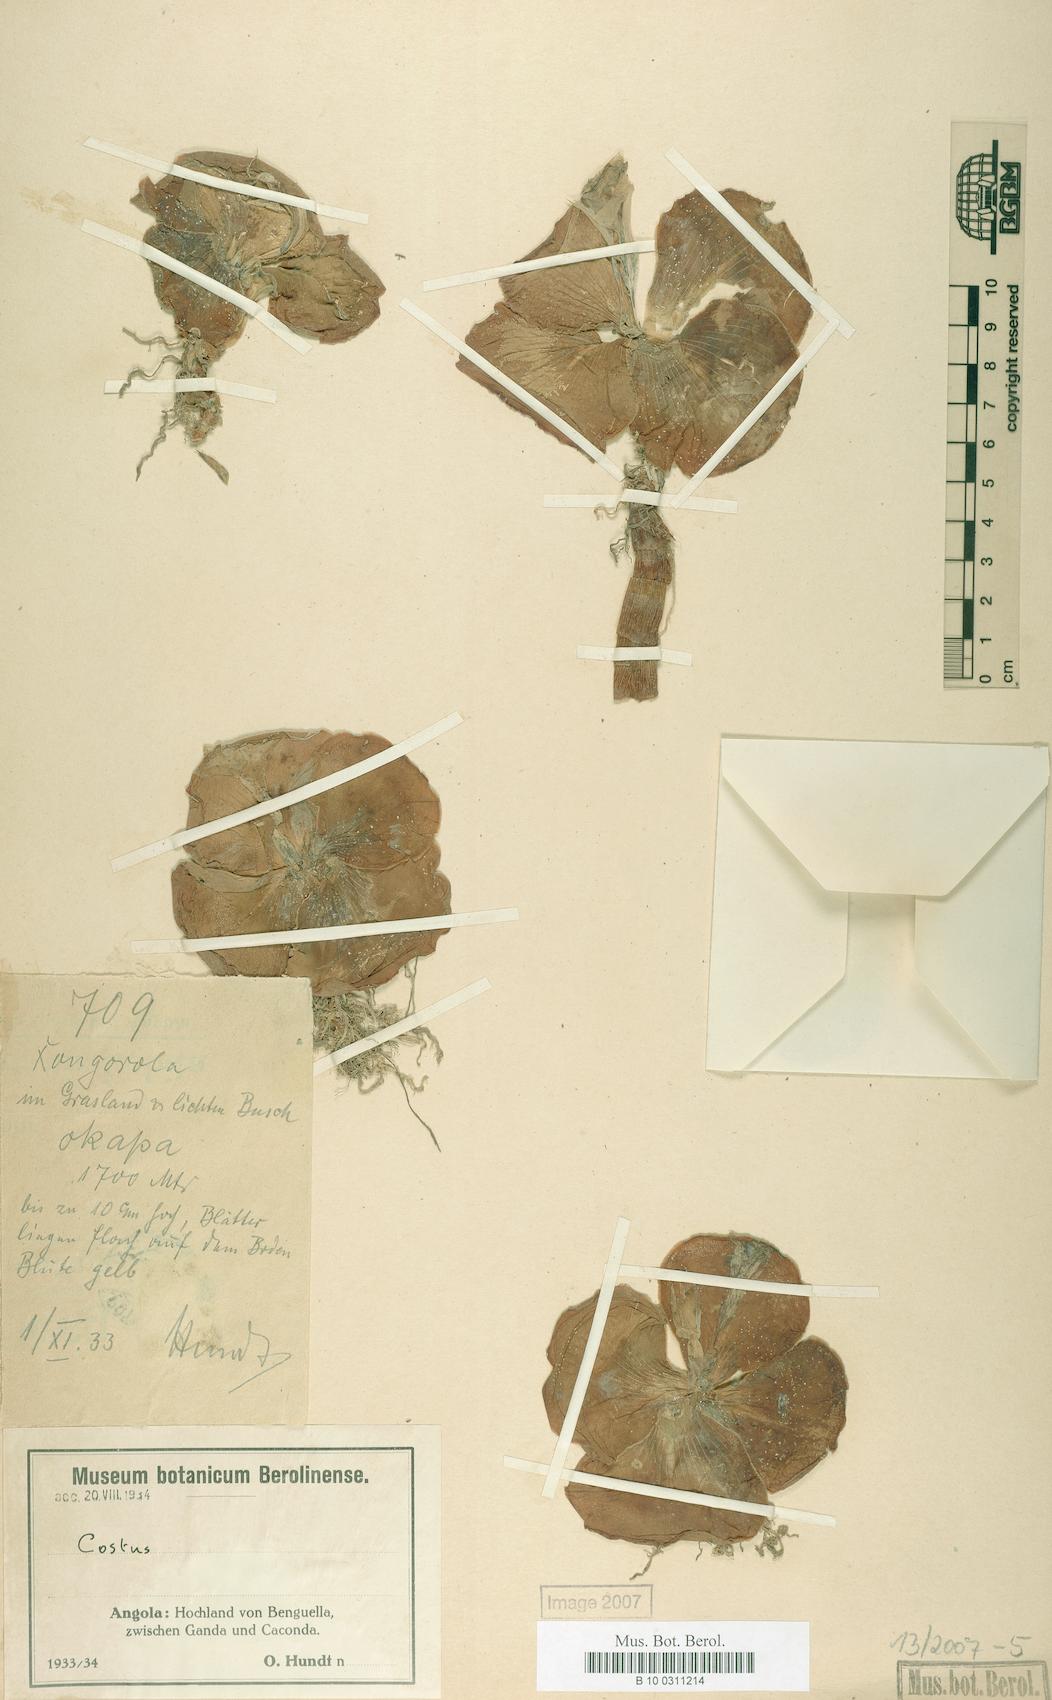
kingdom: Plantae
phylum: Tracheophyta
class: Liliopsida
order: Zingiberales
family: Costaceae
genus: Costus
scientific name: Costus spectabilis
